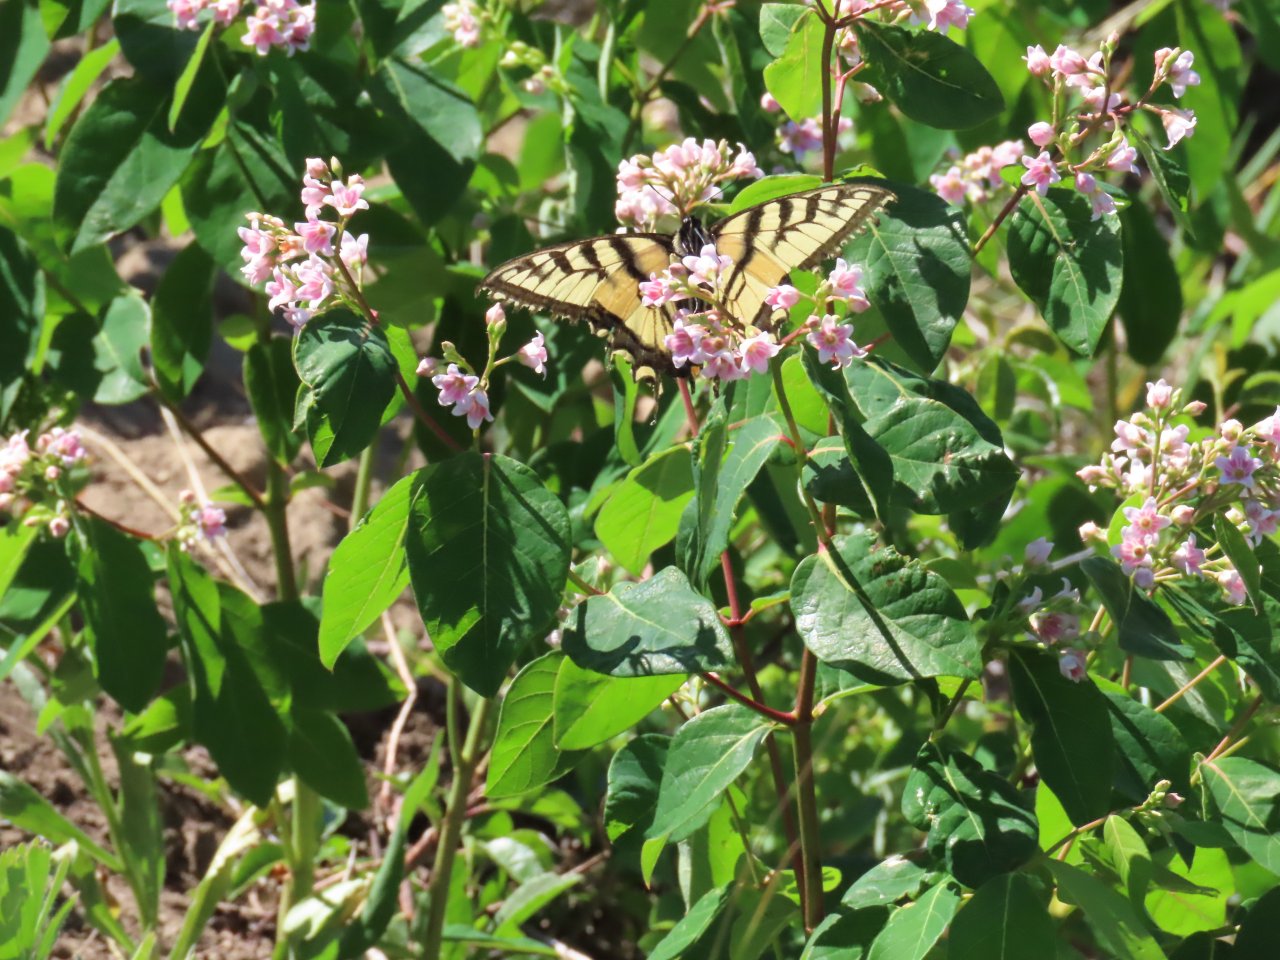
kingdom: Animalia
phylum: Arthropoda
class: Insecta
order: Lepidoptera
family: Papilionidae
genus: Pterourus
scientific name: Pterourus canadensis
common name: Canadian Tiger Swallowtail
